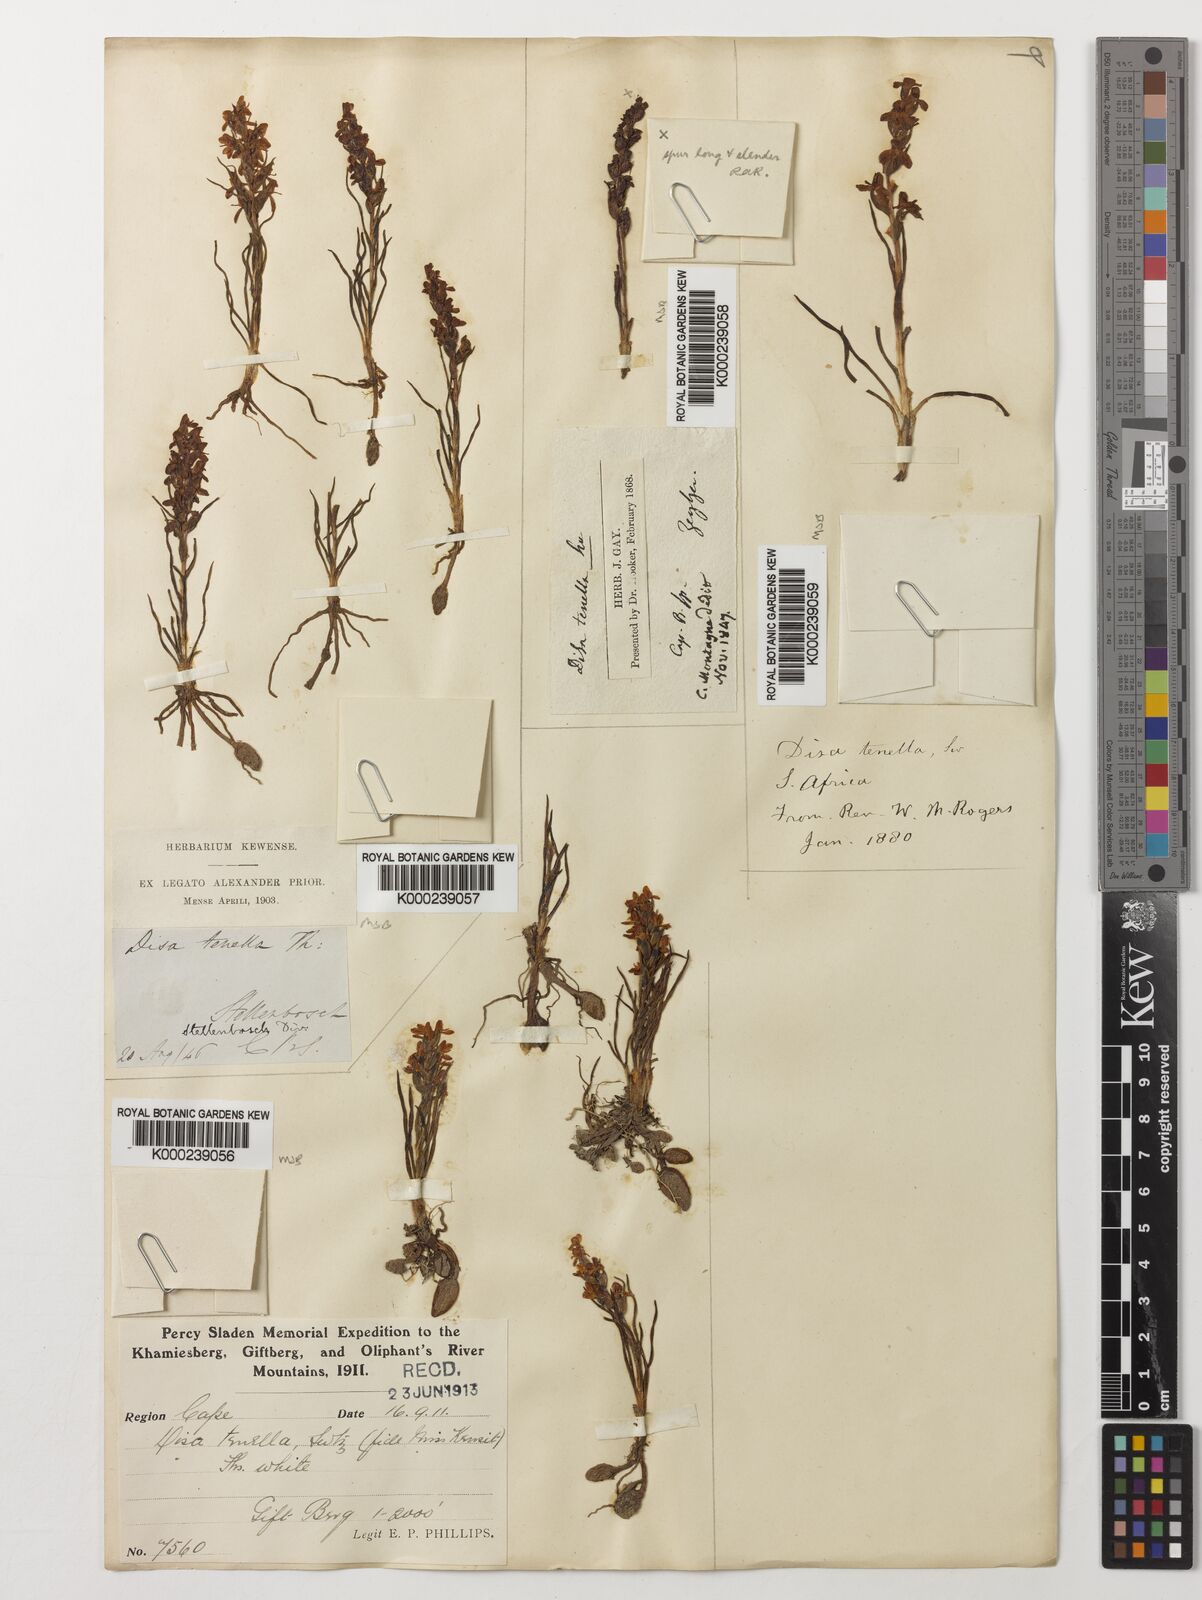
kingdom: Plantae
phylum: Tracheophyta
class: Liliopsida
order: Asparagales
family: Orchidaceae
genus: Disa
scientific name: Disa tenella
